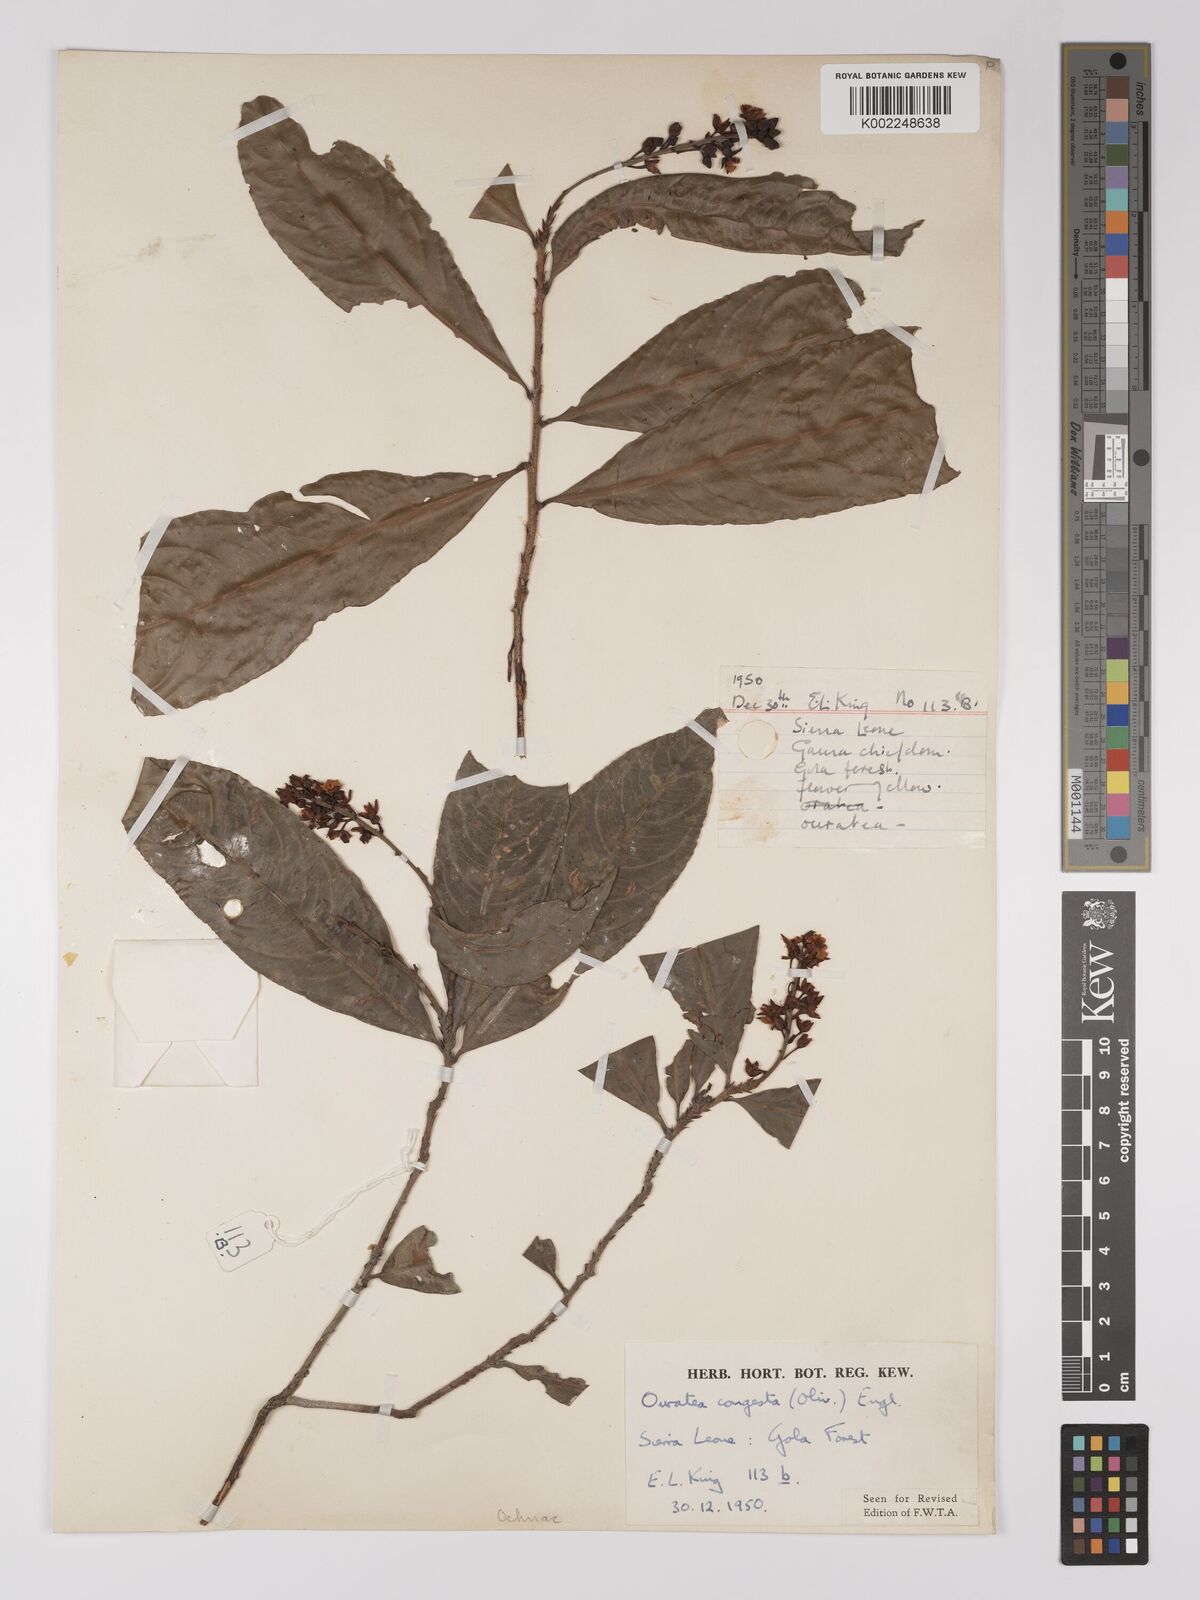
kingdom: Plantae
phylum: Tracheophyta
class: Magnoliopsida
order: Malpighiales
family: Ochnaceae
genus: Campylospermum
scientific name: Campylospermum congestum
